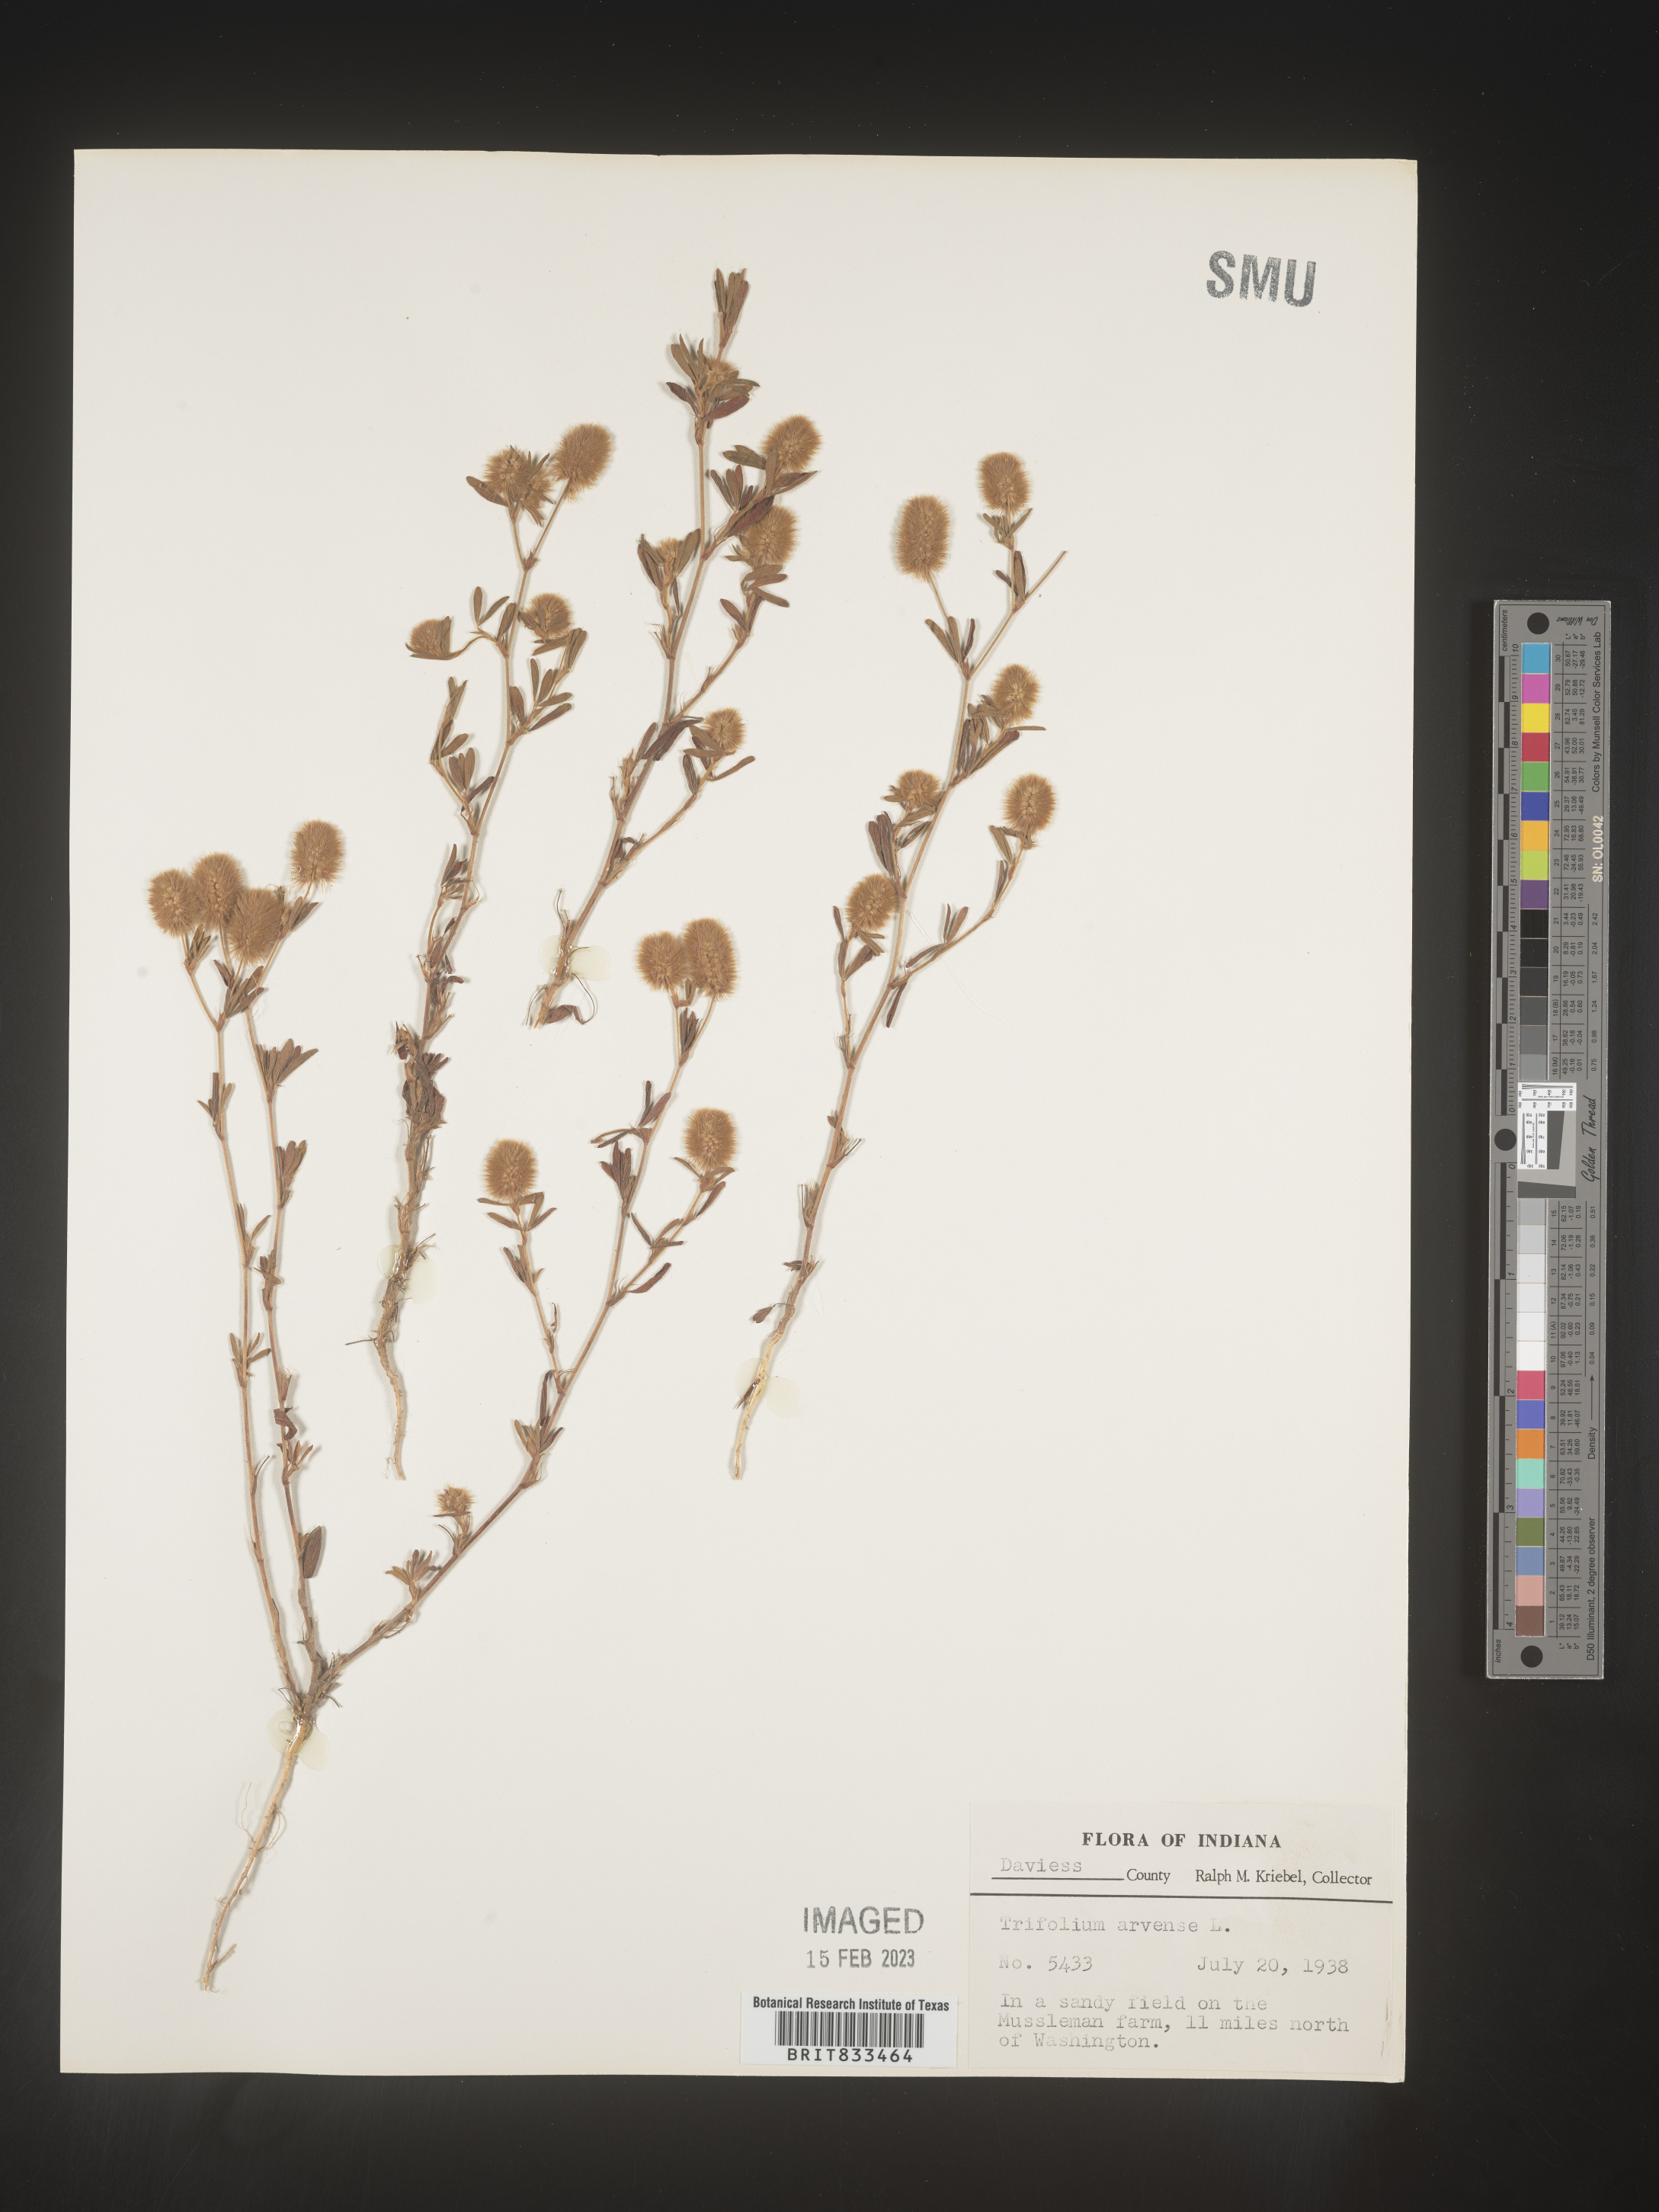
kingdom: Plantae
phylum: Tracheophyta
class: Magnoliopsida
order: Fabales
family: Fabaceae
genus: Trifolium
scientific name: Trifolium arvense
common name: Hare's-foot clover
